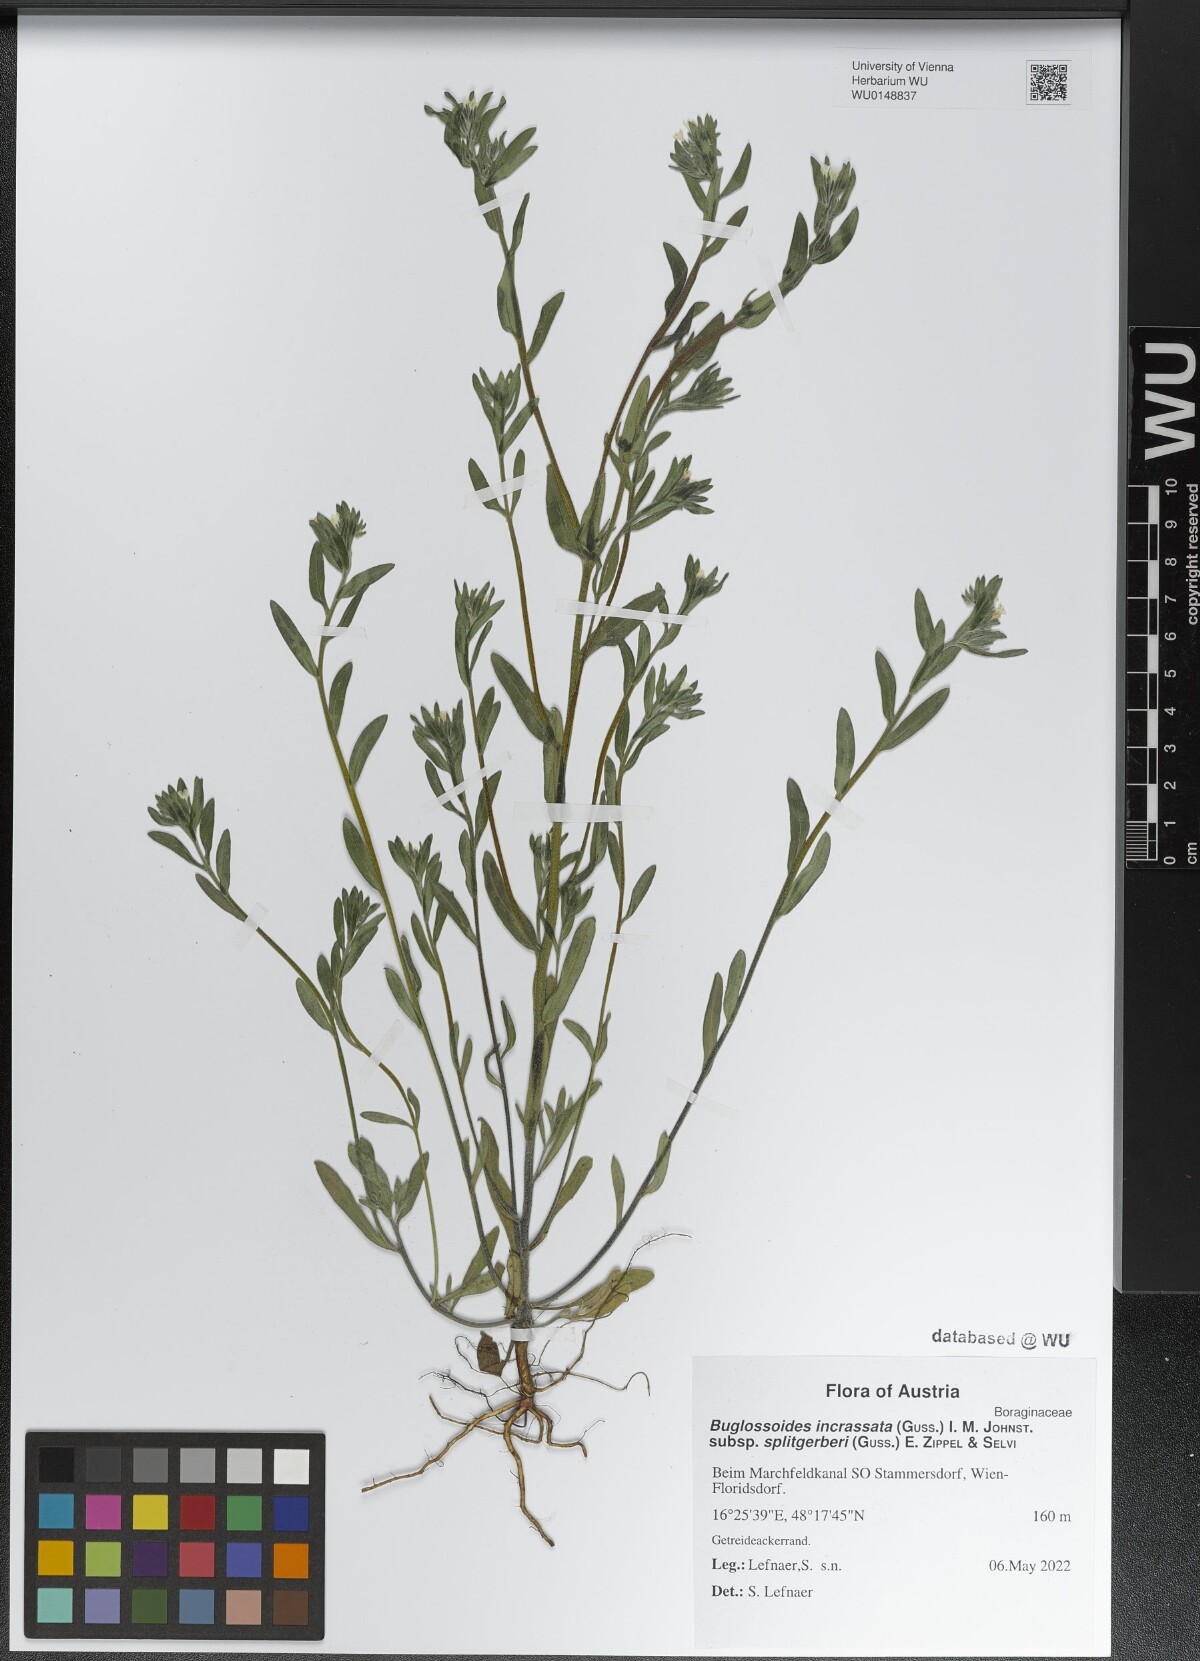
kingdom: Plantae
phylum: Tracheophyta
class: Magnoliopsida
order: Boraginales
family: Boraginaceae
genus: Buglossoides
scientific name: Buglossoides incrassata
